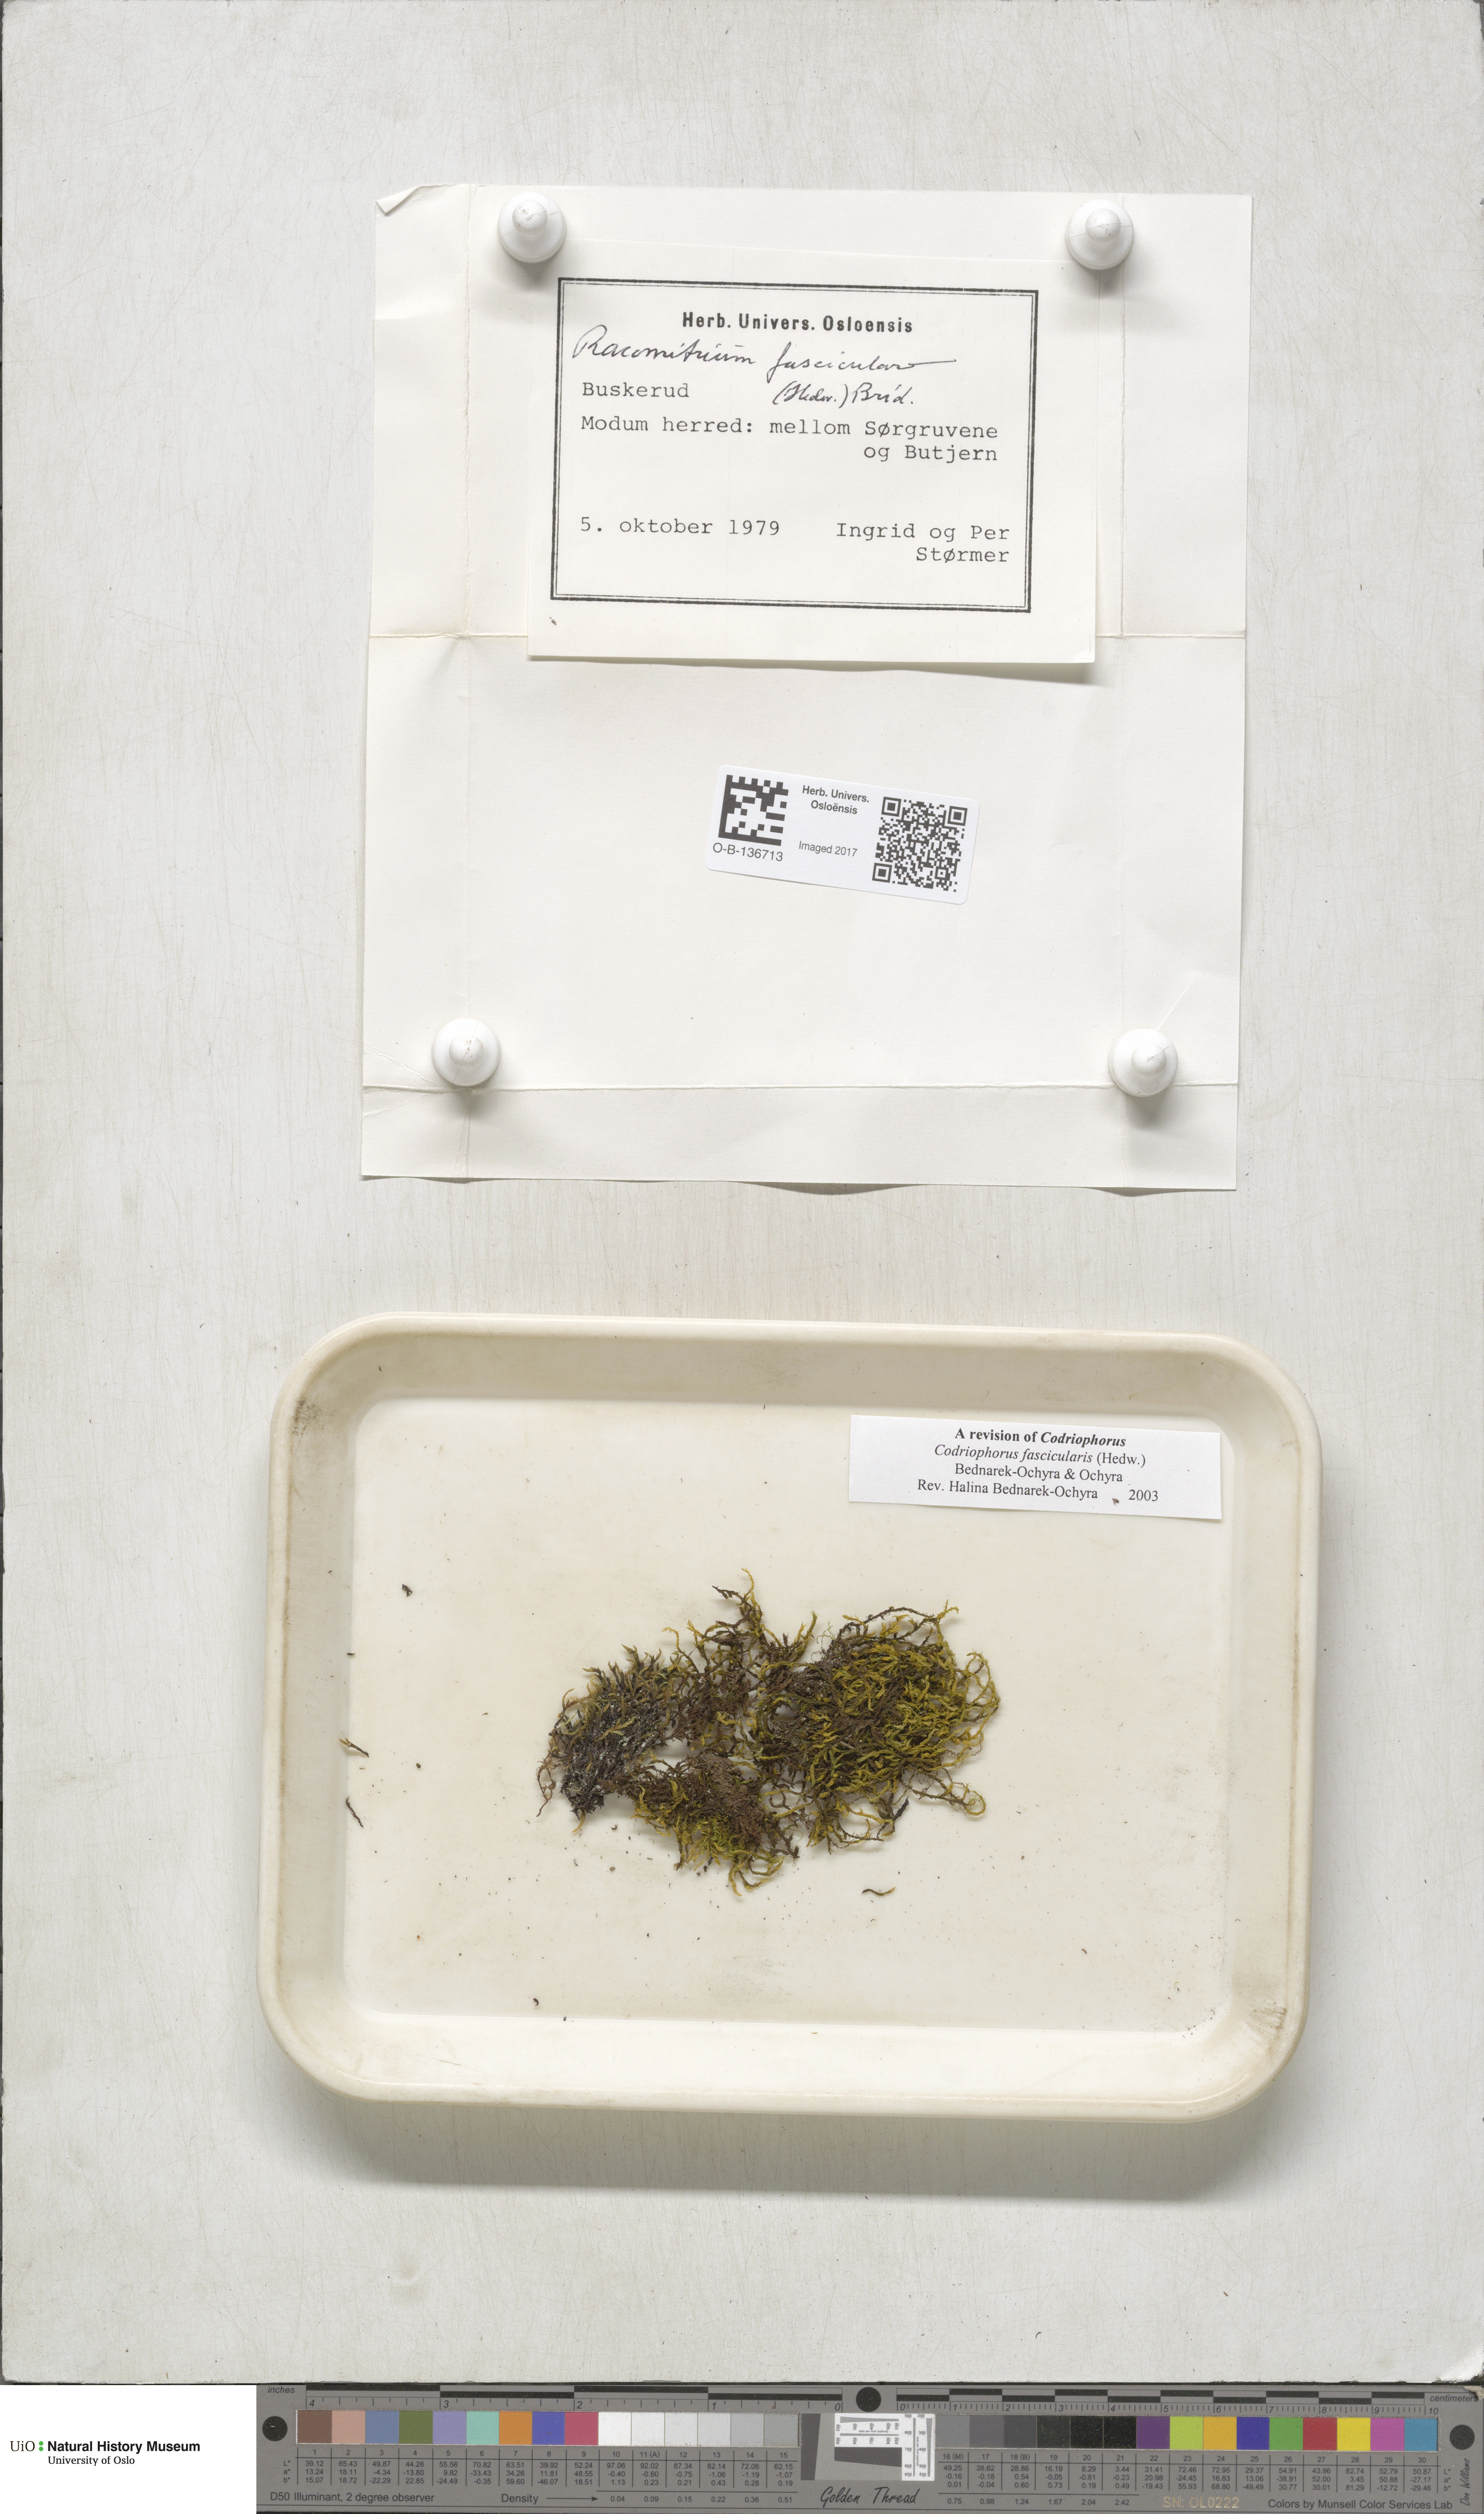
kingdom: Plantae
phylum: Bryophyta
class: Bryopsida
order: Grimmiales
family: Grimmiaceae
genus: Dilutineuron
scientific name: Dilutineuron fasciculare
